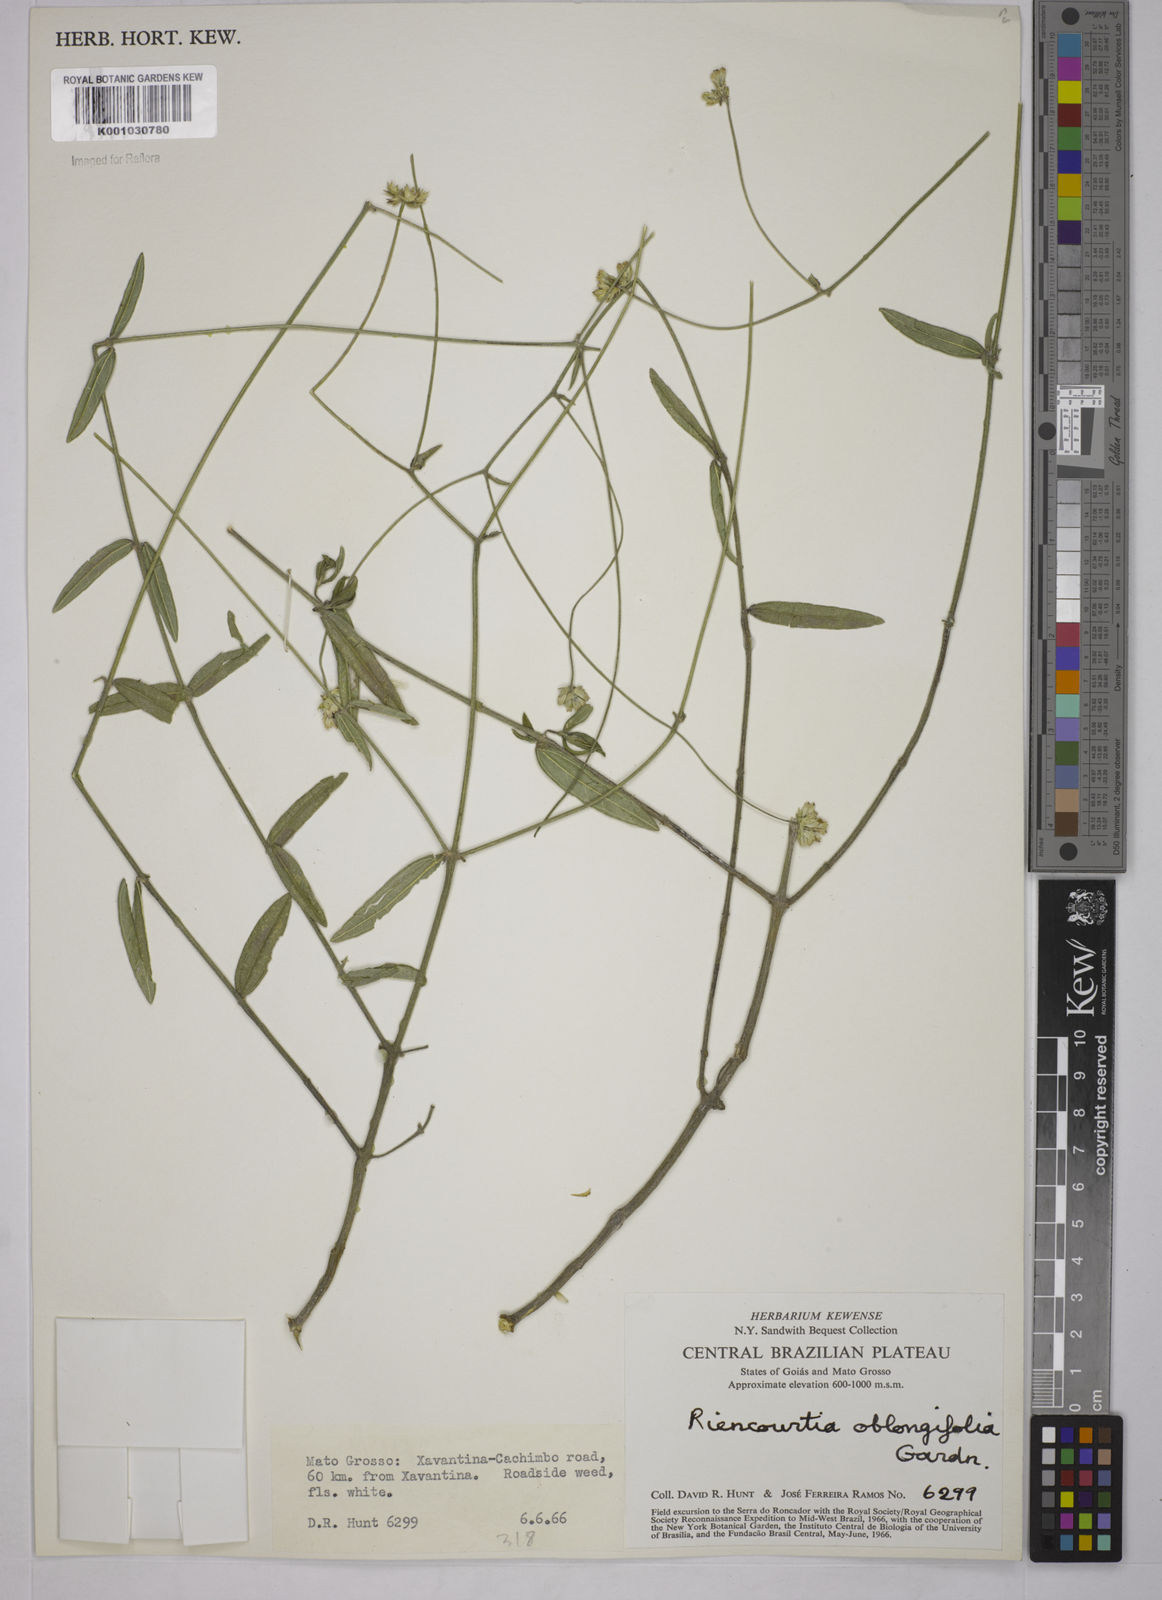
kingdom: Plantae
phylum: Tracheophyta
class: Magnoliopsida
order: Asterales
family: Asteraceae
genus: Riencourtia
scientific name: Riencourtia oblongifolia
